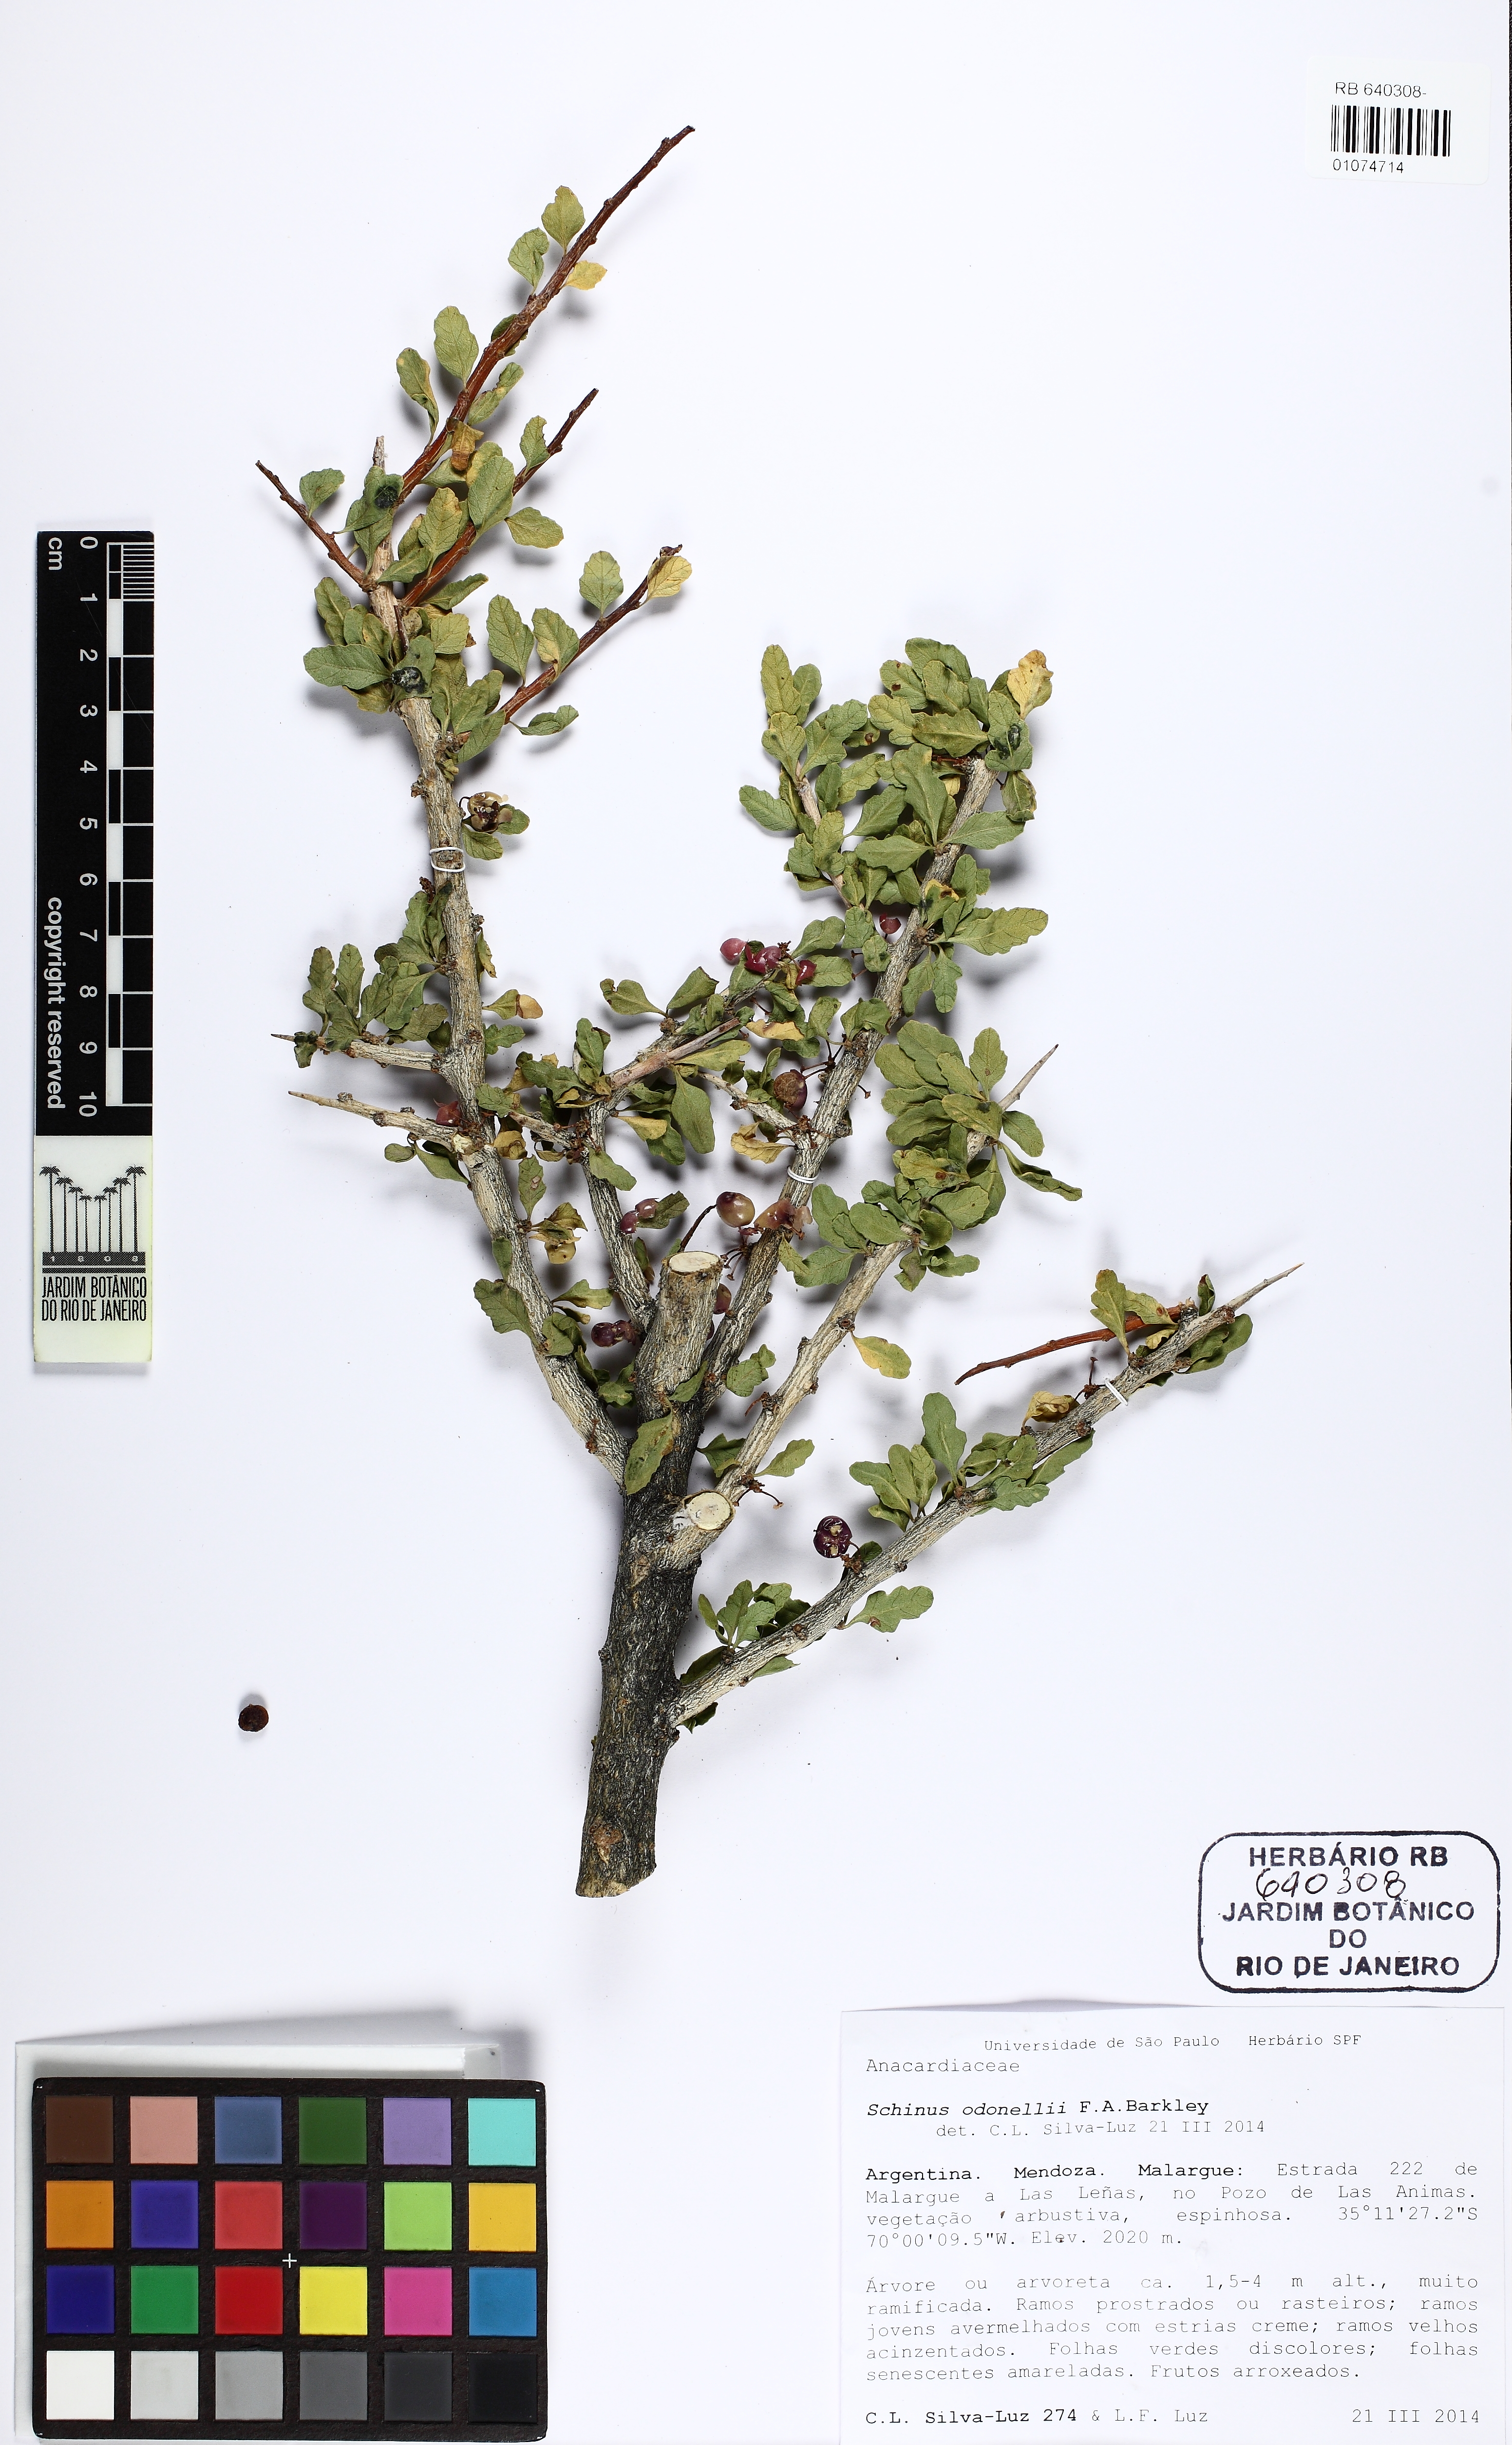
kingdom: Plantae
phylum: Tracheophyta
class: Magnoliopsida
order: Sapindales
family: Anacardiaceae
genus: Schinus
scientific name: Schinus odonellii
